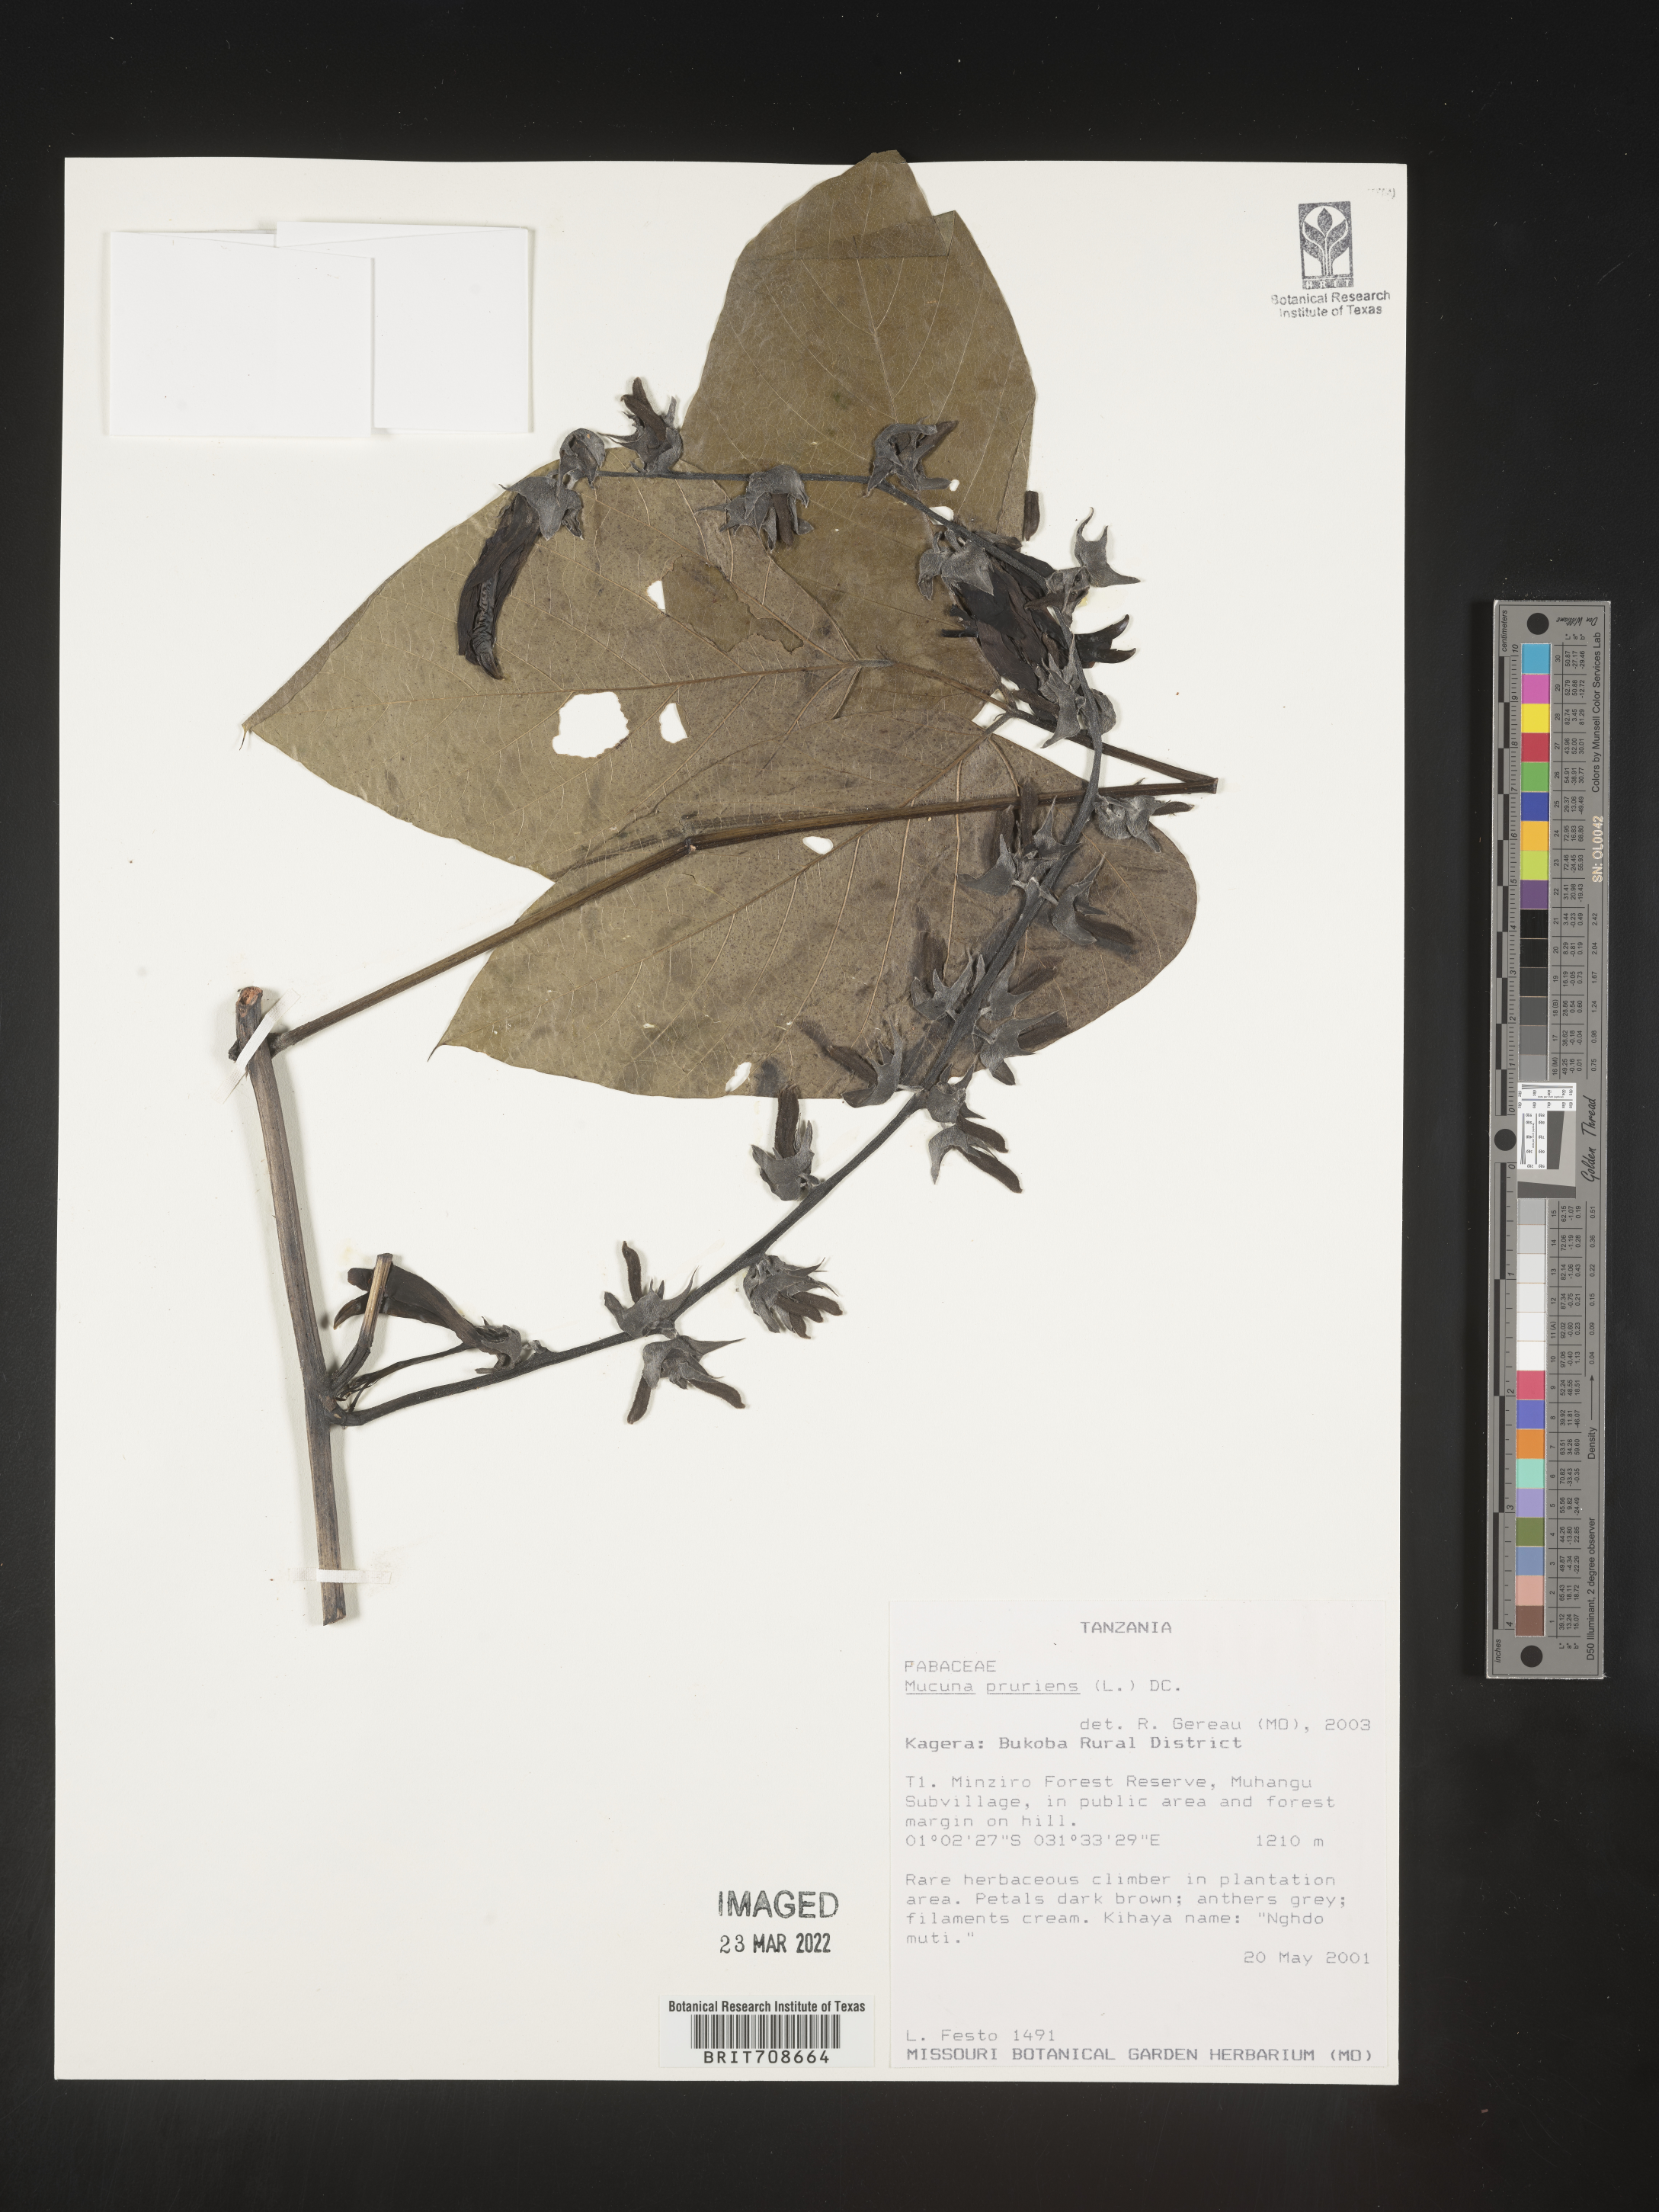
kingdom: Plantae
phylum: Tracheophyta
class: Magnoliopsida
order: Fabales
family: Fabaceae
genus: Mucuna
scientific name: Mucuna
